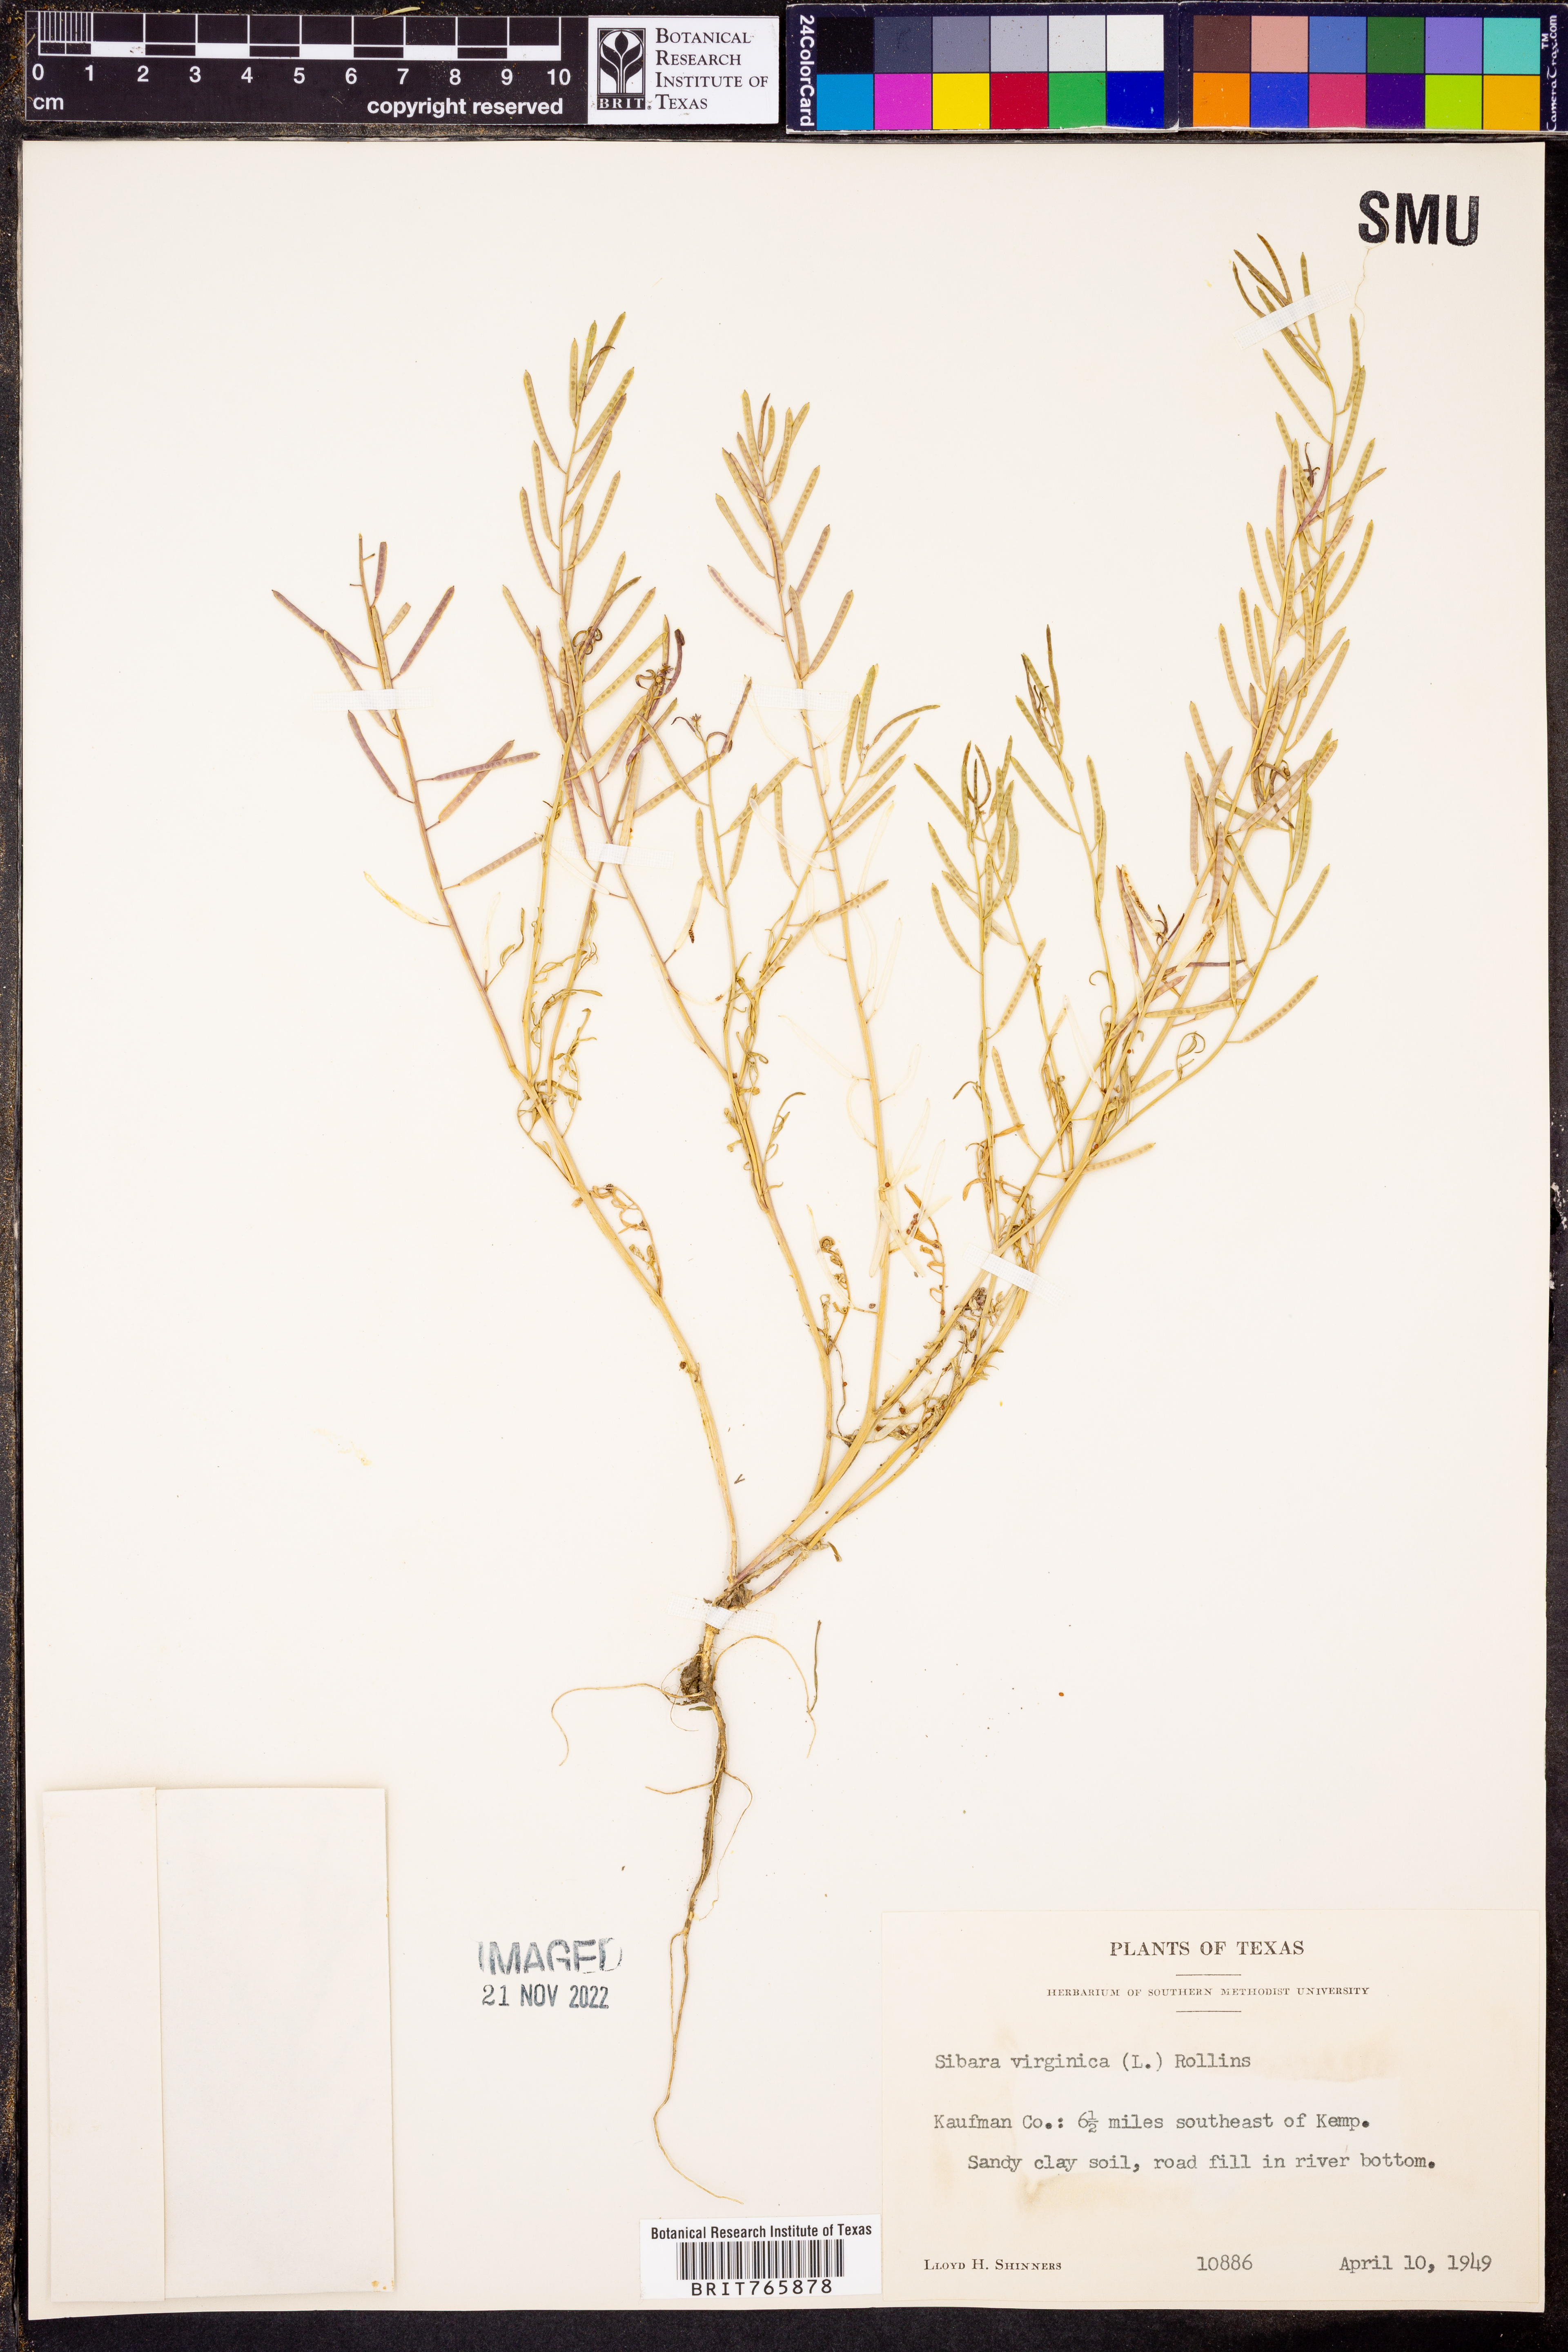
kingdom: Plantae
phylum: Tracheophyta
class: Magnoliopsida
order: Brassicales
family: Brassicaceae
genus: Planodes
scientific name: Planodes virginicum
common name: Virginia cress
